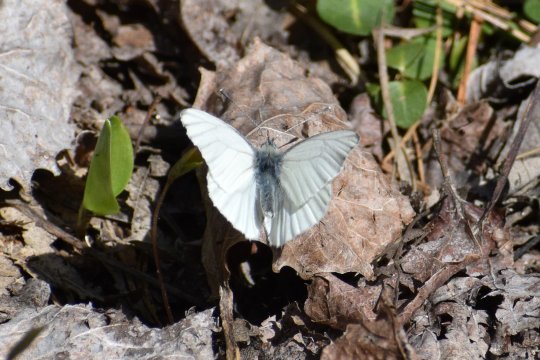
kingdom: Animalia
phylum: Arthropoda
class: Insecta
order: Lepidoptera
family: Pieridae
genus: Pieris
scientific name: Pieris oleracea
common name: Mustard White
